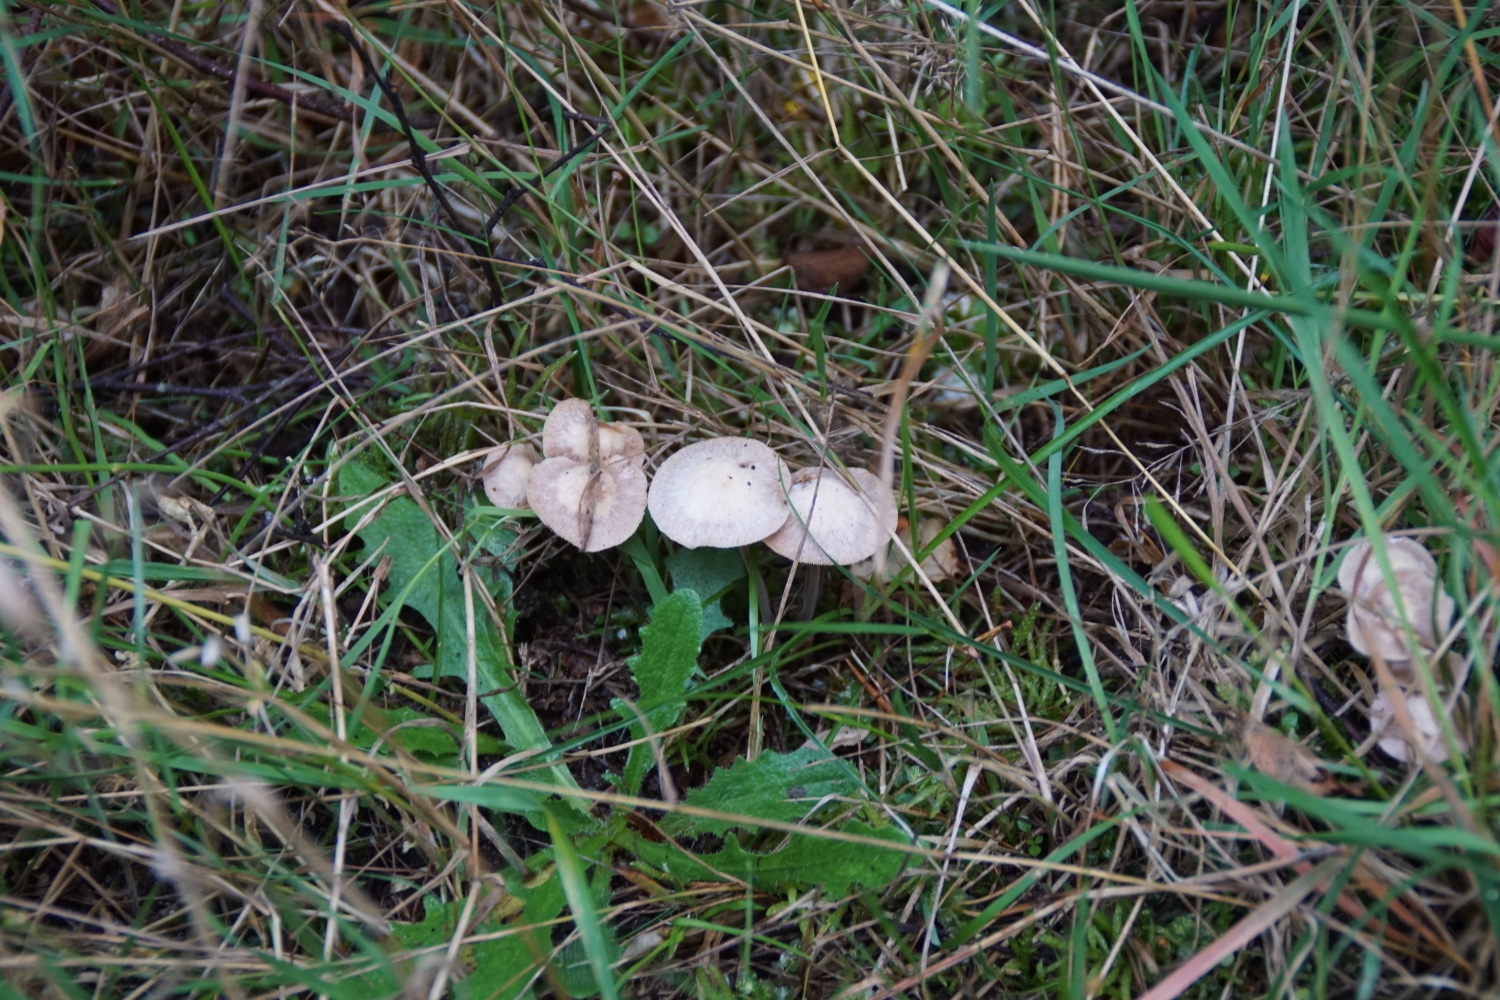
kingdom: Fungi
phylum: Basidiomycota
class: Agaricomycetes
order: Agaricales
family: Omphalotaceae
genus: Collybiopsis
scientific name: Collybiopsis confluens
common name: knippe-fladhat
